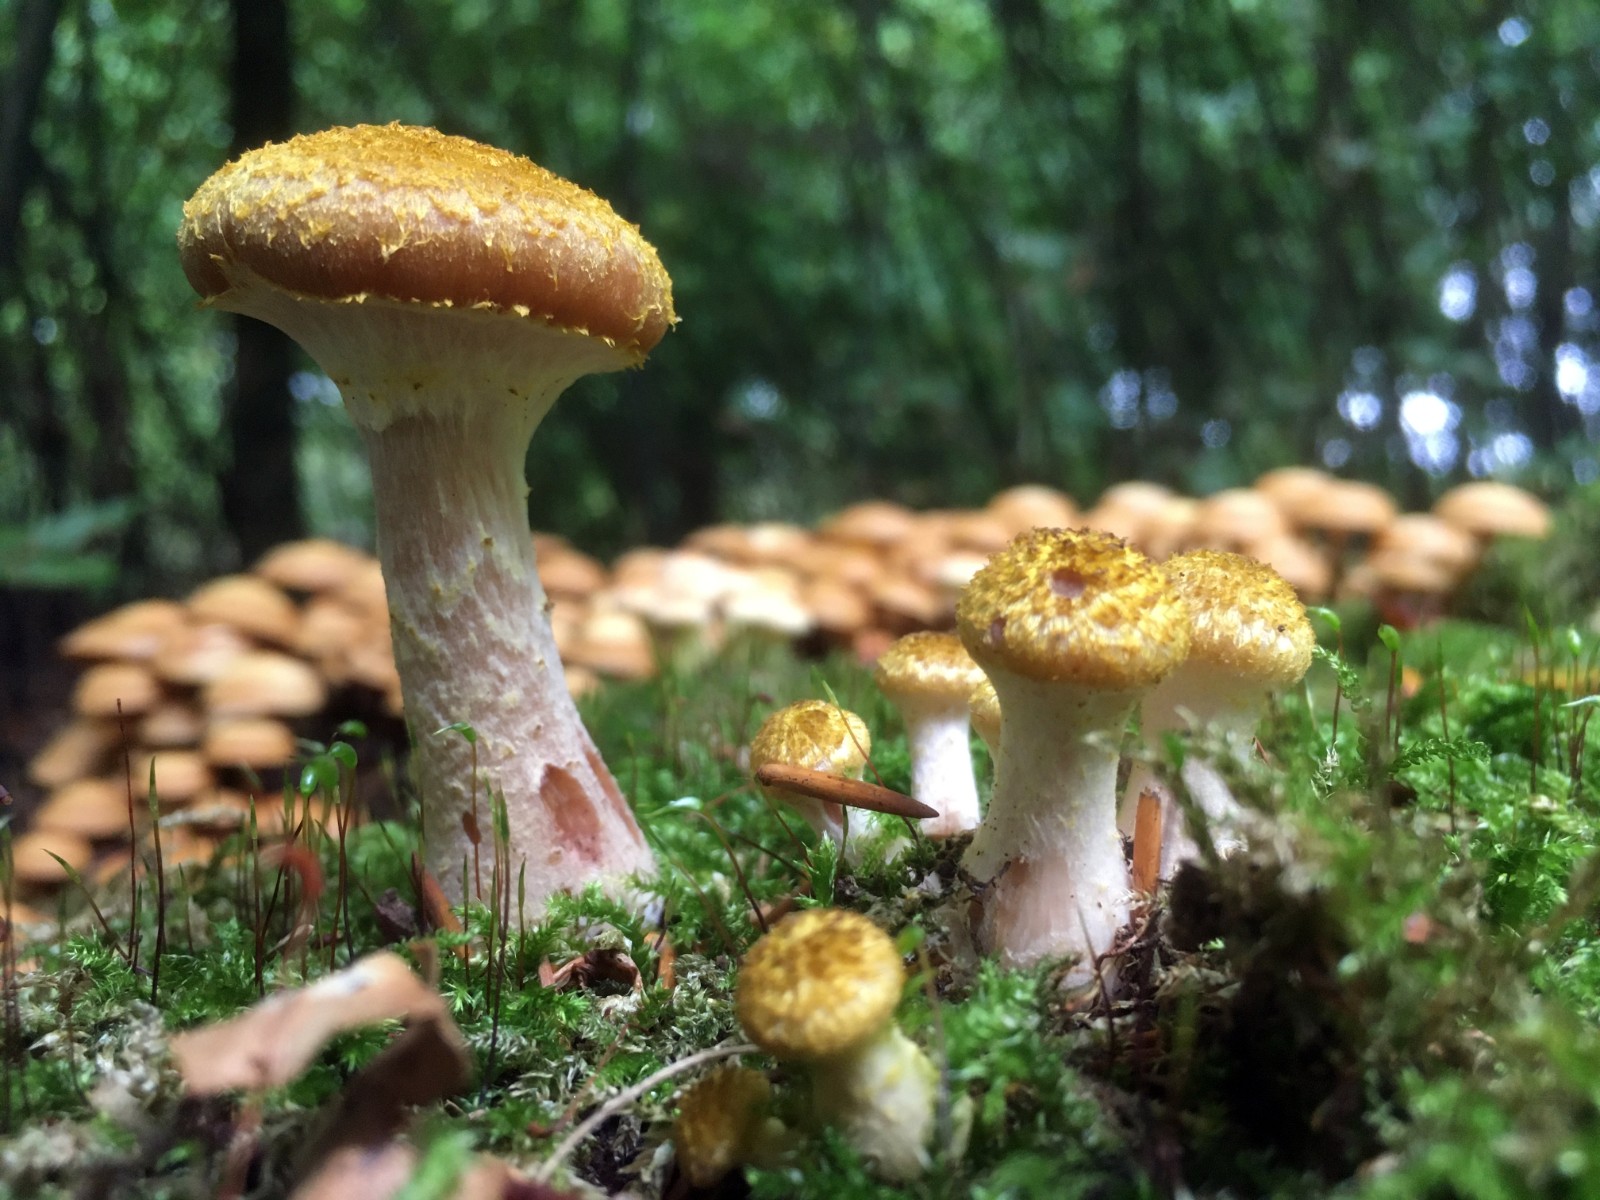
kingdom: Fungi
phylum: Basidiomycota
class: Agaricomycetes
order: Agaricales
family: Physalacriaceae
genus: Armillaria
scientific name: Armillaria lutea
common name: køllestokket honningsvamp
